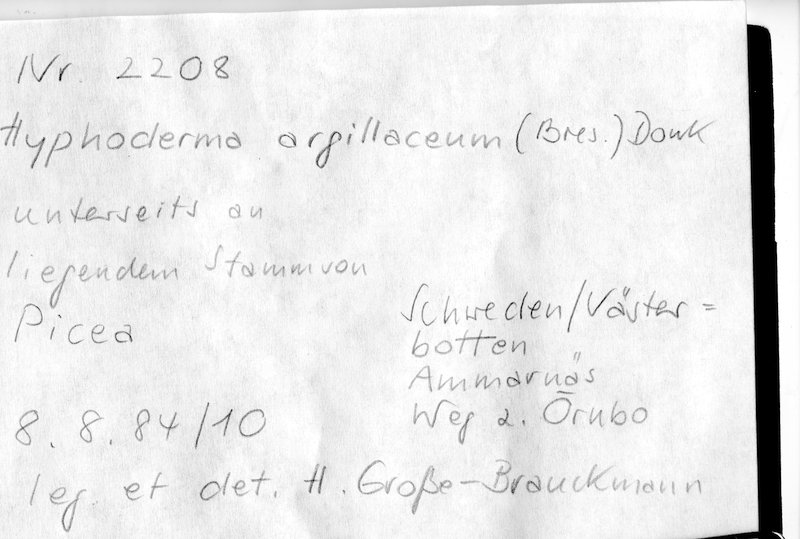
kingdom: Fungi
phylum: Basidiomycota
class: Agaricomycetes
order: Hymenochaetales
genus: Kurtia
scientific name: Kurtia argillacea
